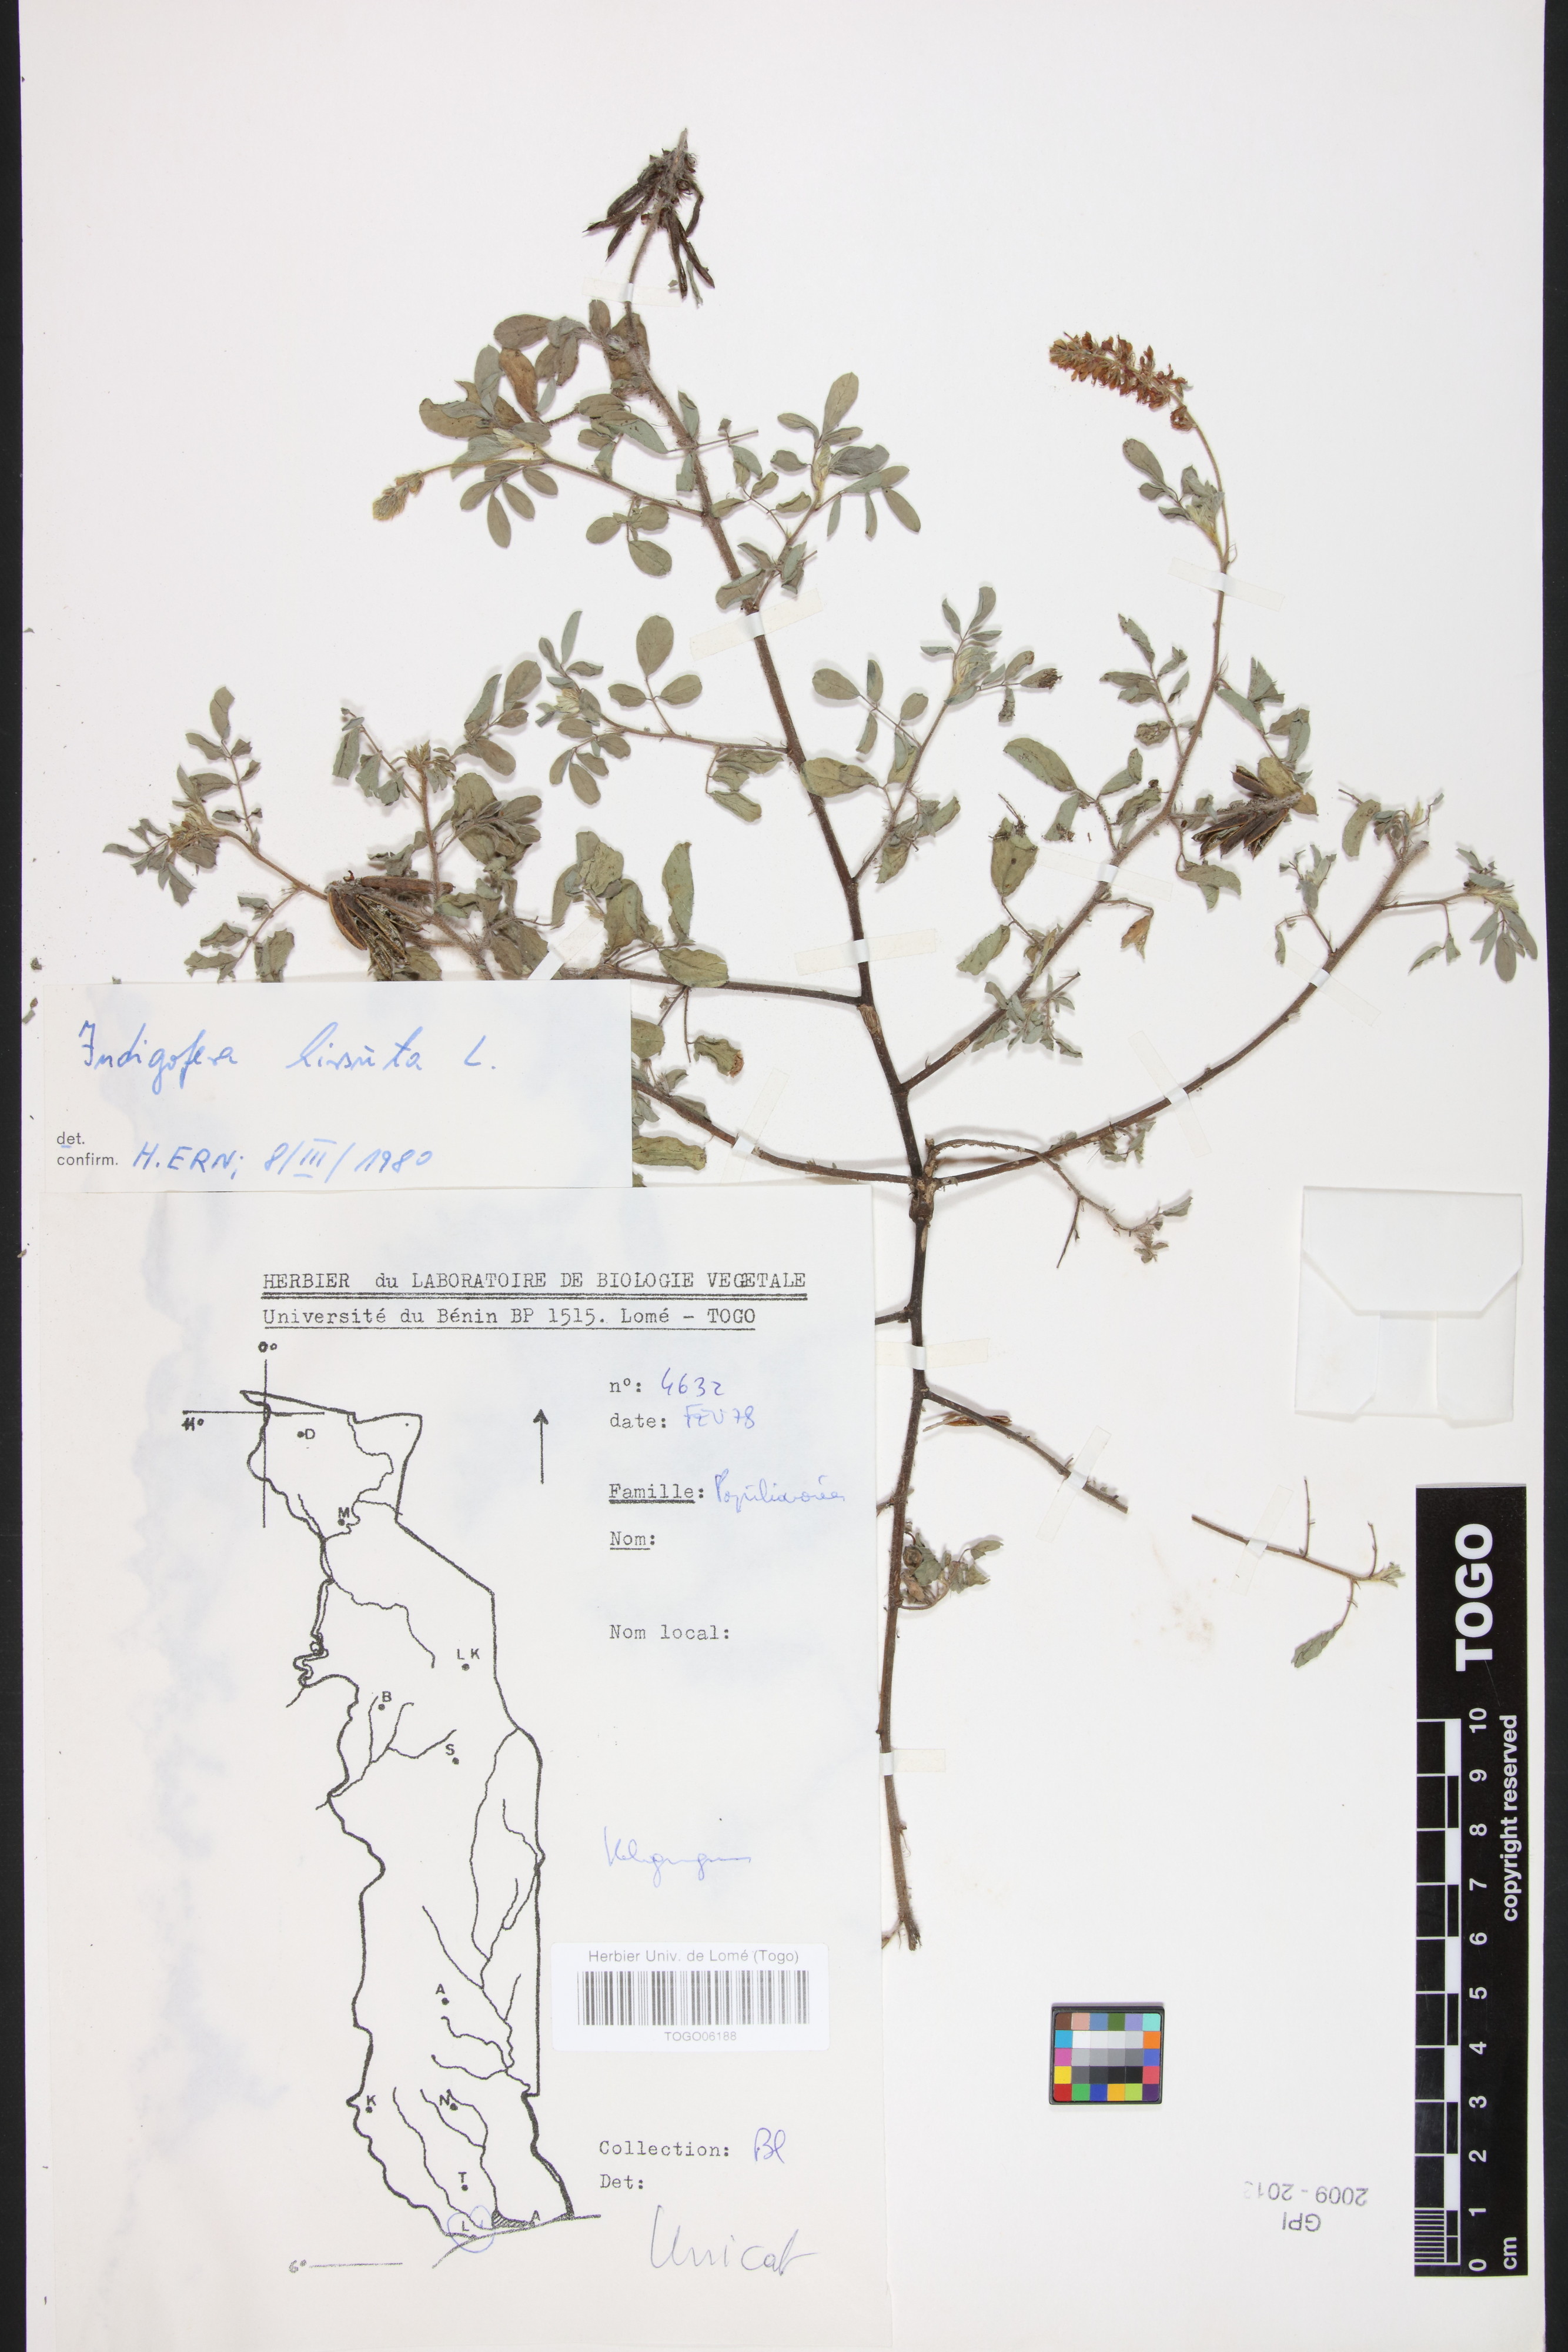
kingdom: Plantae
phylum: Tracheophyta
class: Magnoliopsida
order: Fabales
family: Fabaceae
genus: Indigofera
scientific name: Indigofera hirsuta
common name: Hairy indigo
